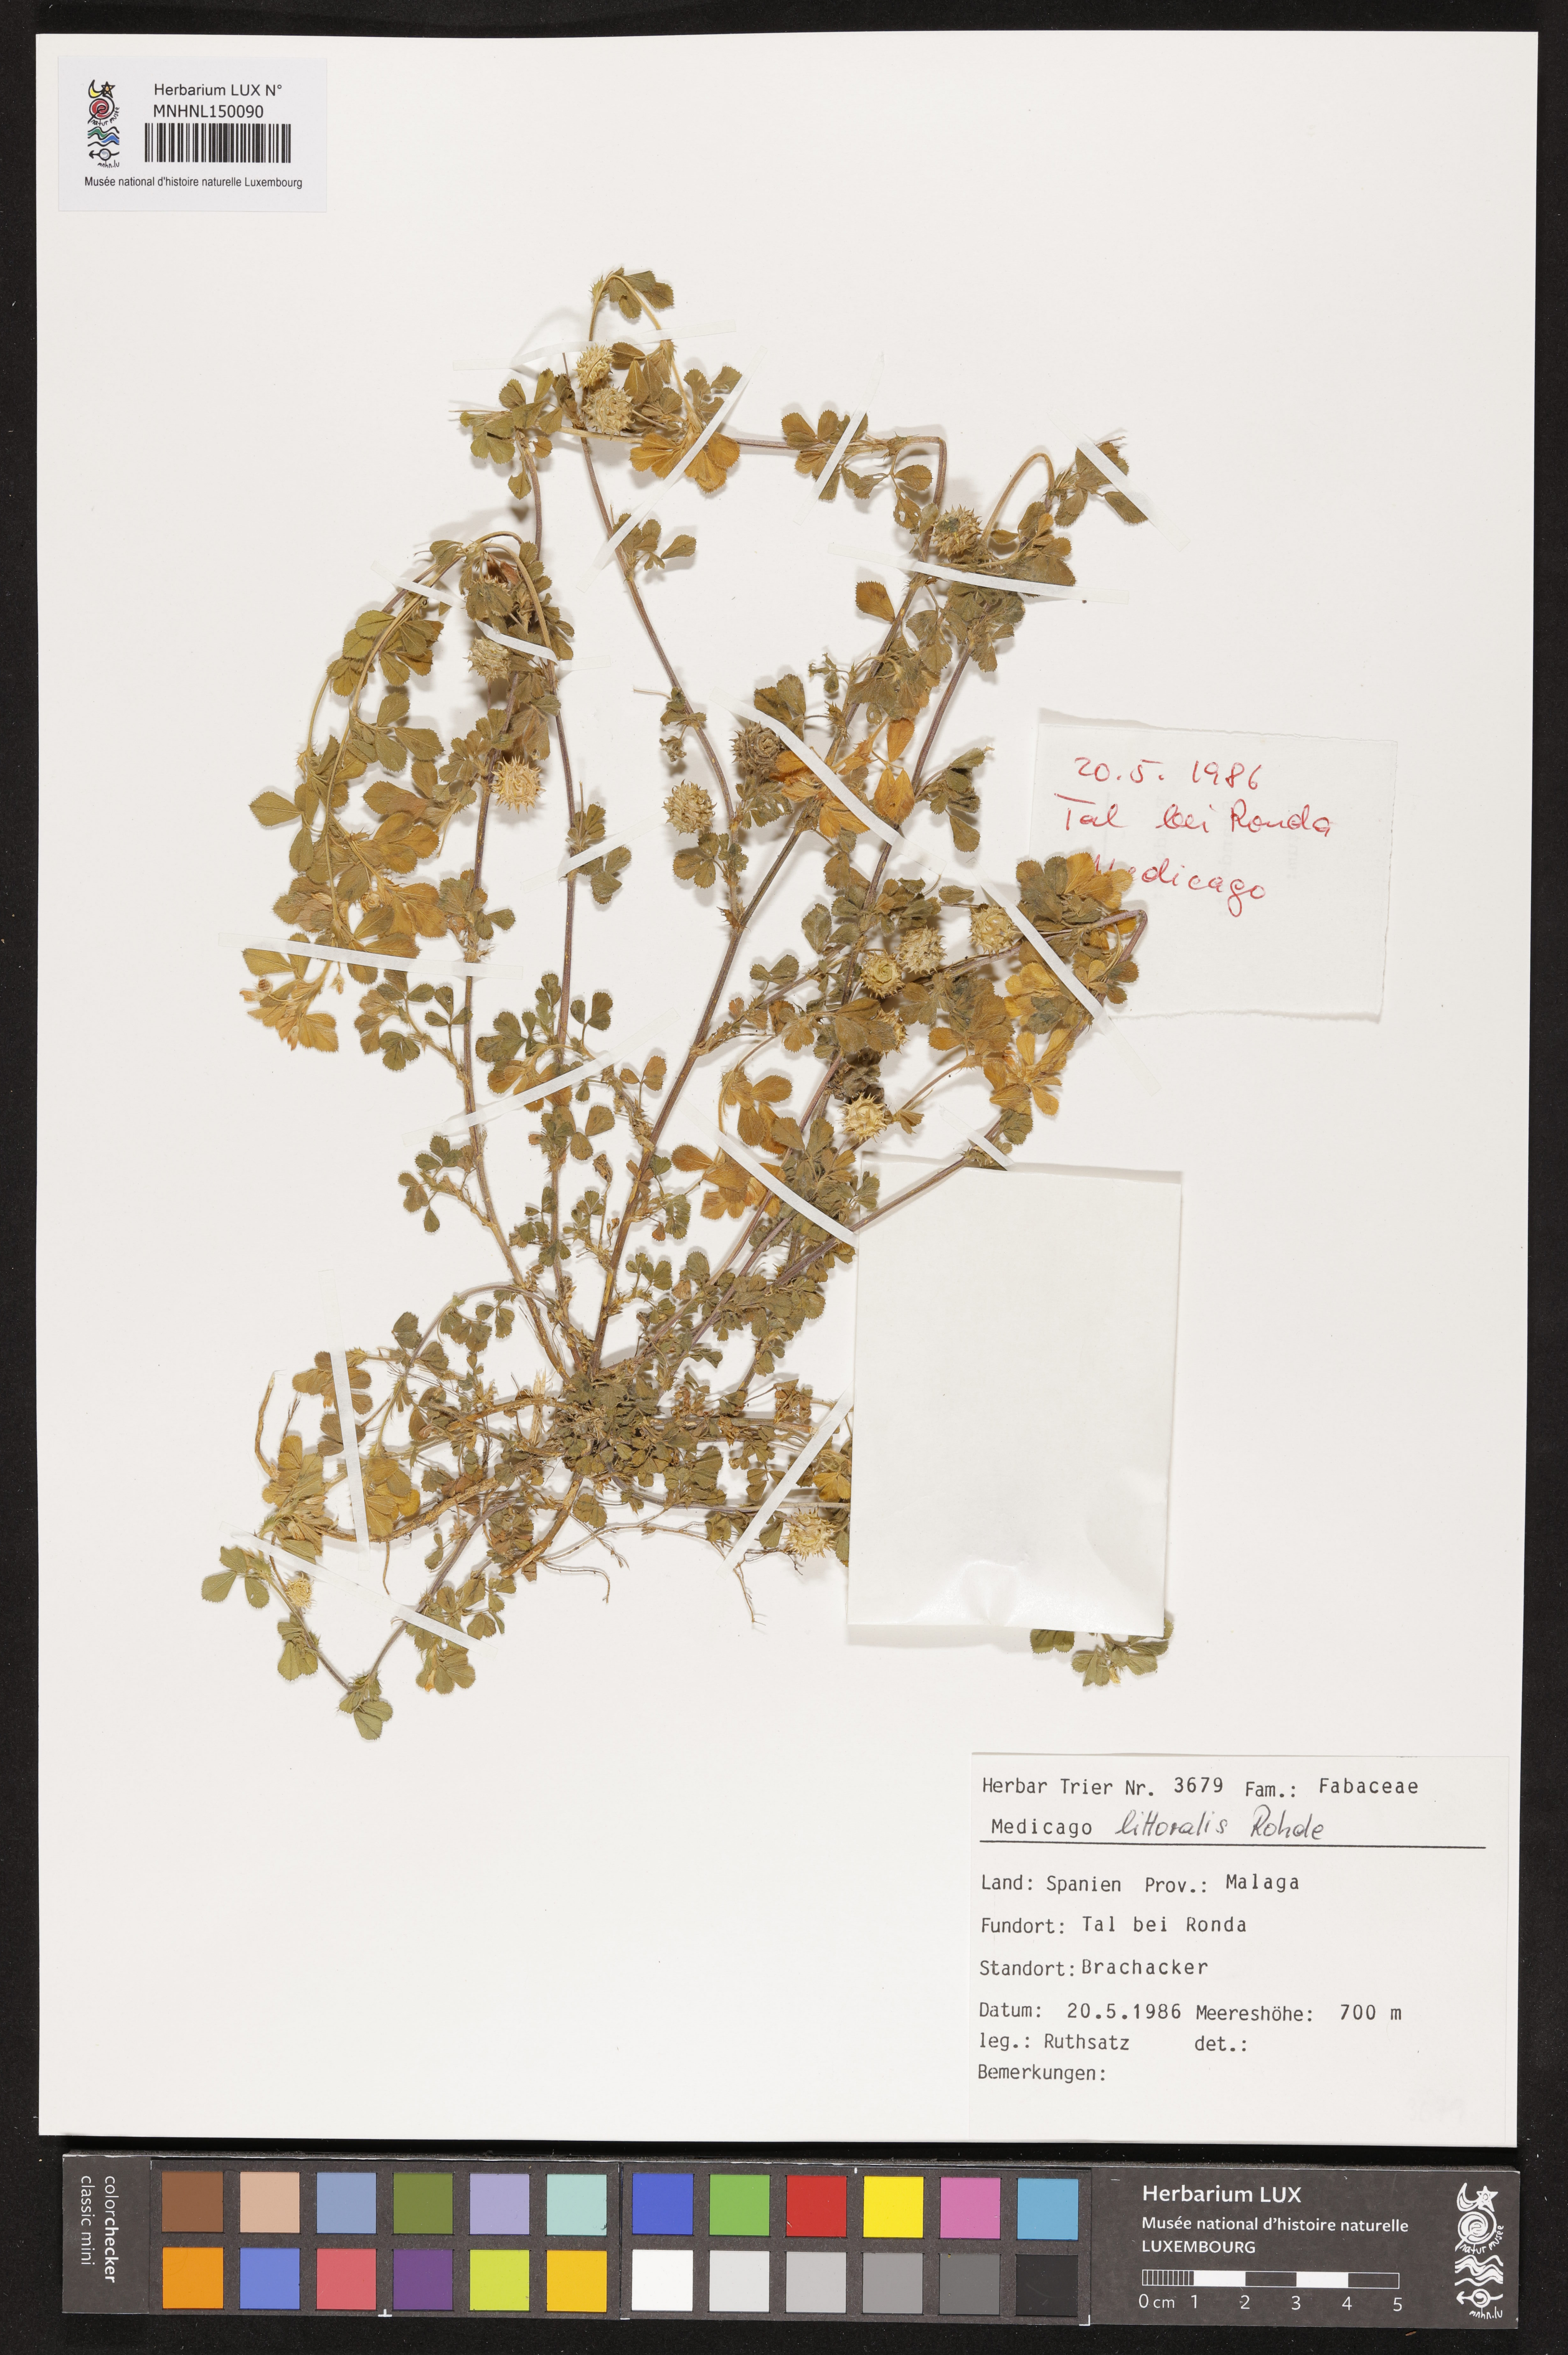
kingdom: Plantae
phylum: Tracheophyta
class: Magnoliopsida
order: Fabales
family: Fabaceae
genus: Medicago
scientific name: Medicago littoralis
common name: Shore medick
